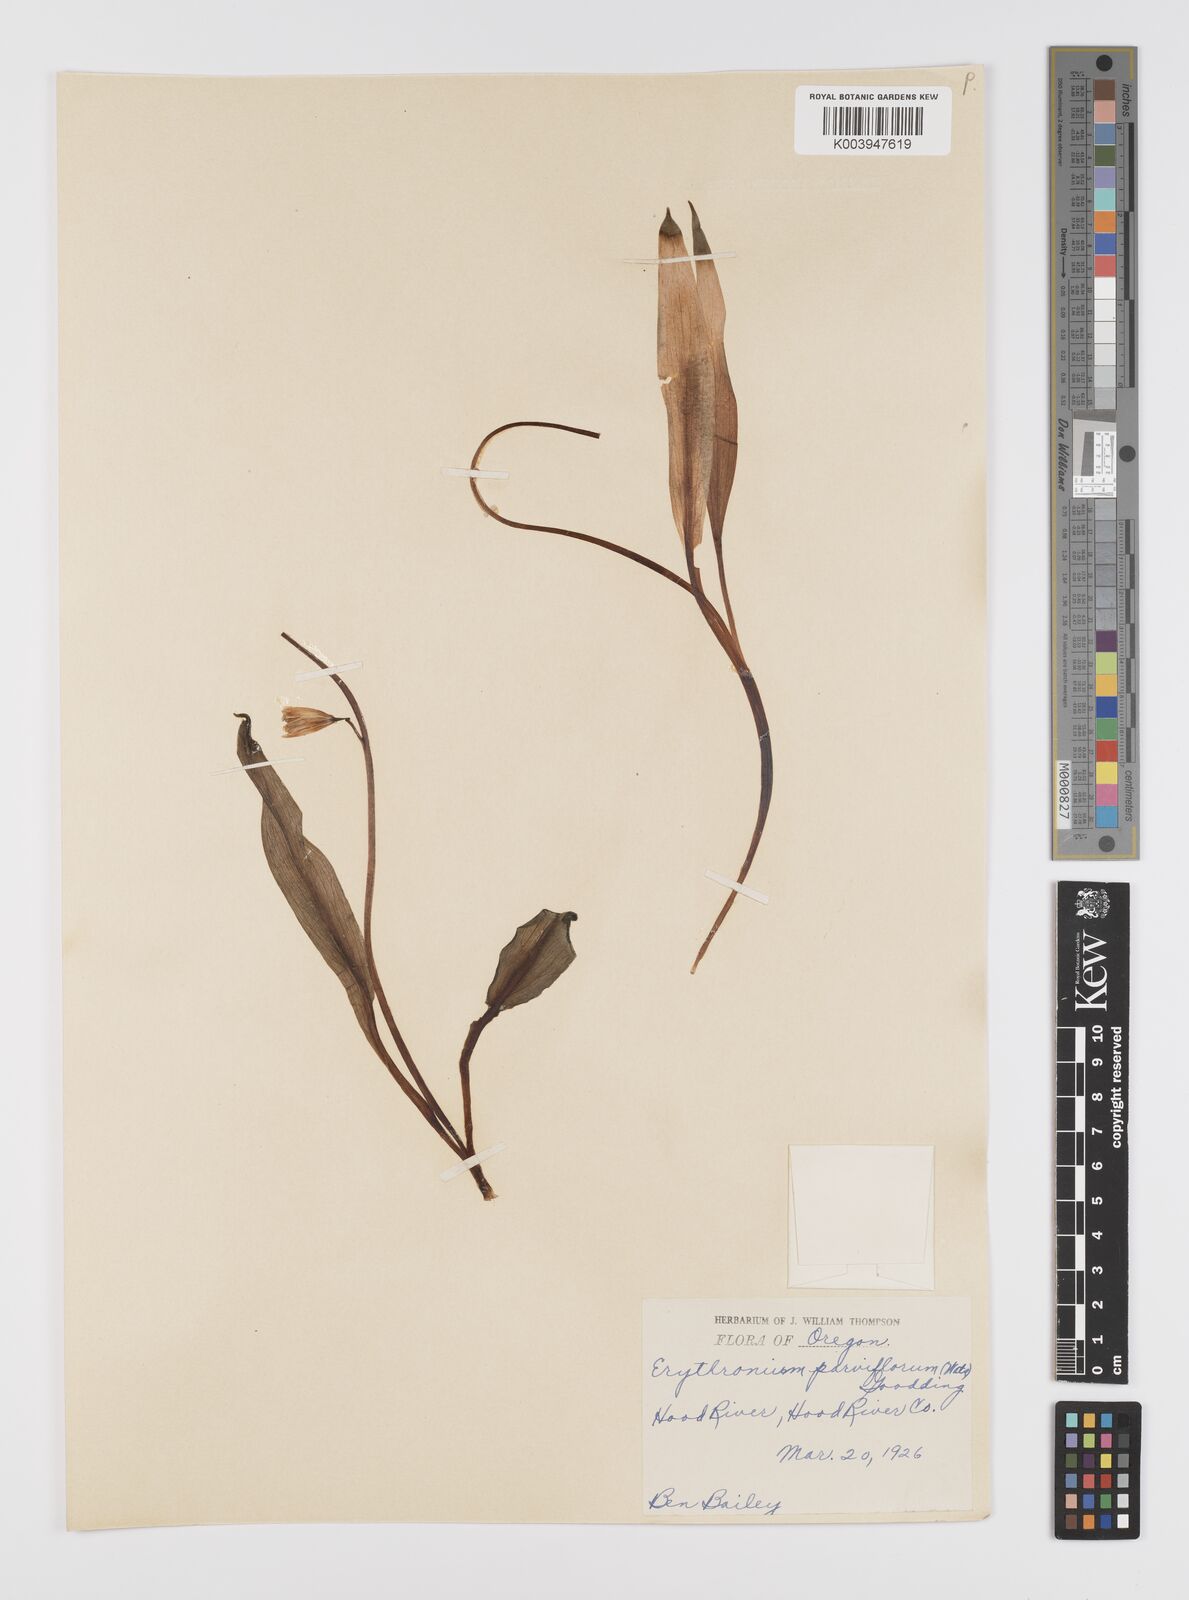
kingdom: Plantae
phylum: Tracheophyta
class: Liliopsida
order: Liliales
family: Liliaceae
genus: Erythronium
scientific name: Erythronium grandiflorum
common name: Avalanche-lily
